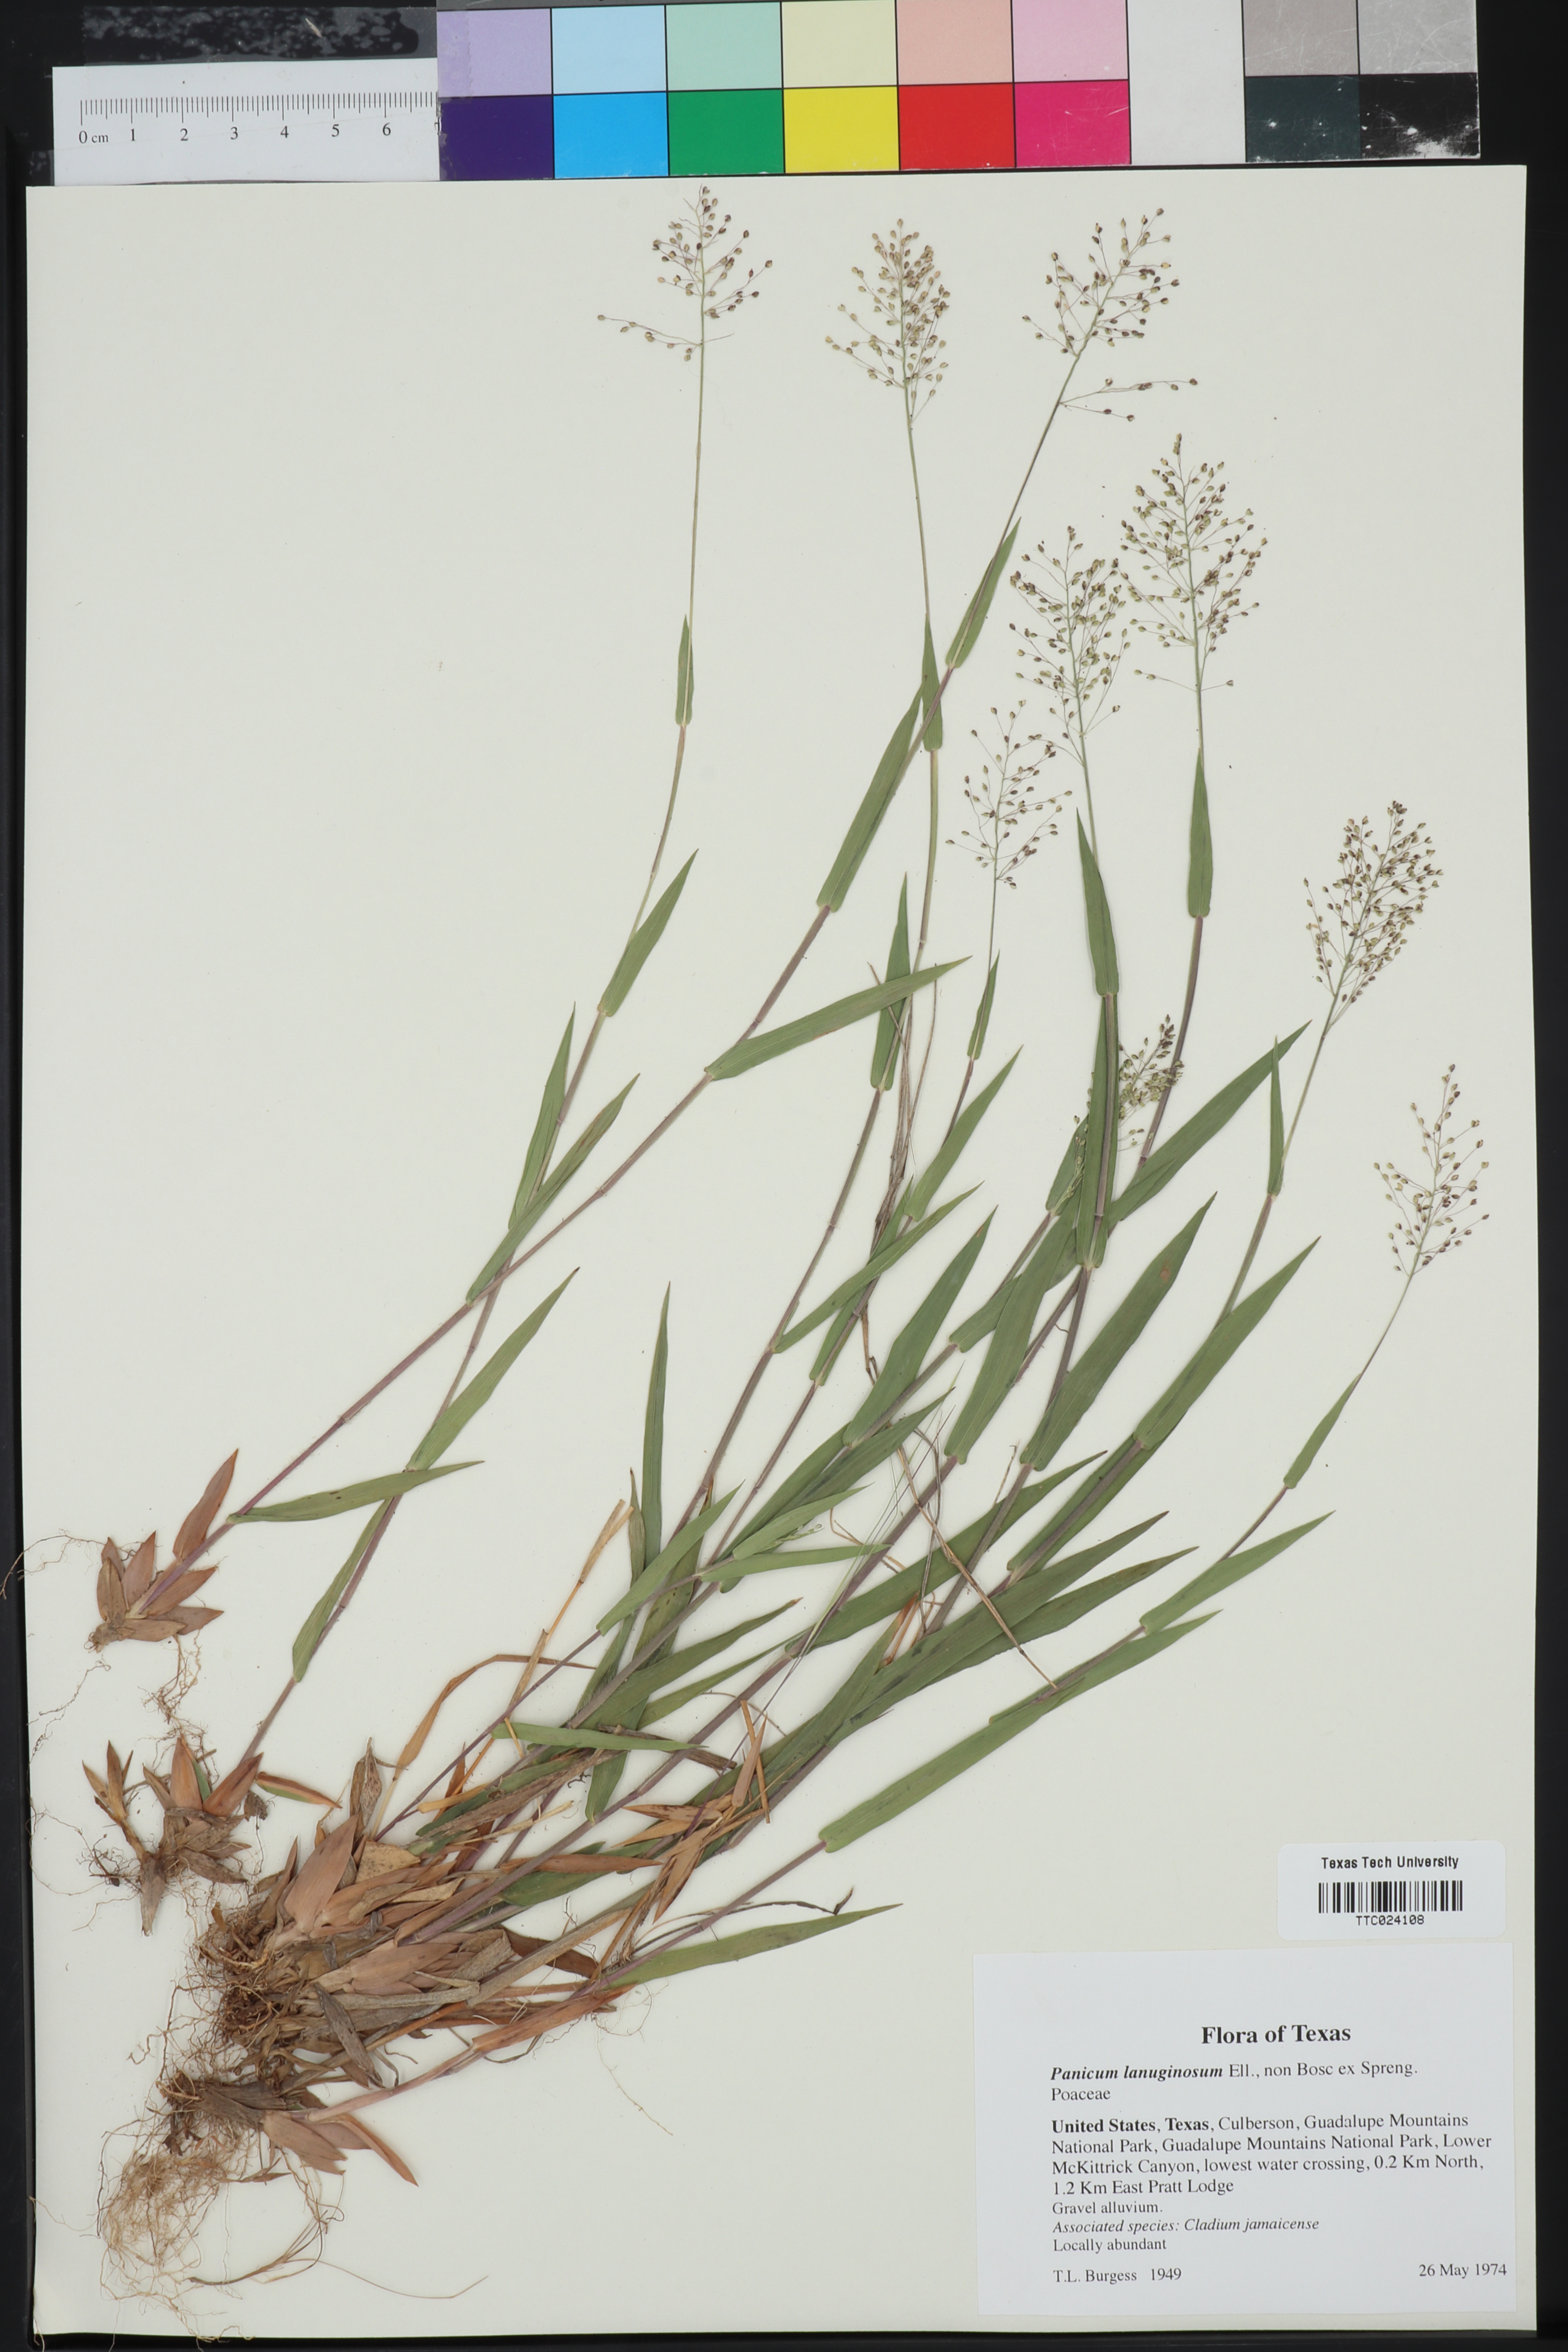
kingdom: Plantae
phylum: Tracheophyta
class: Liliopsida
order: Poales
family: Poaceae
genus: Dichanthelium
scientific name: Dichanthelium lanuginosum
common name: Woolly panicgrass
